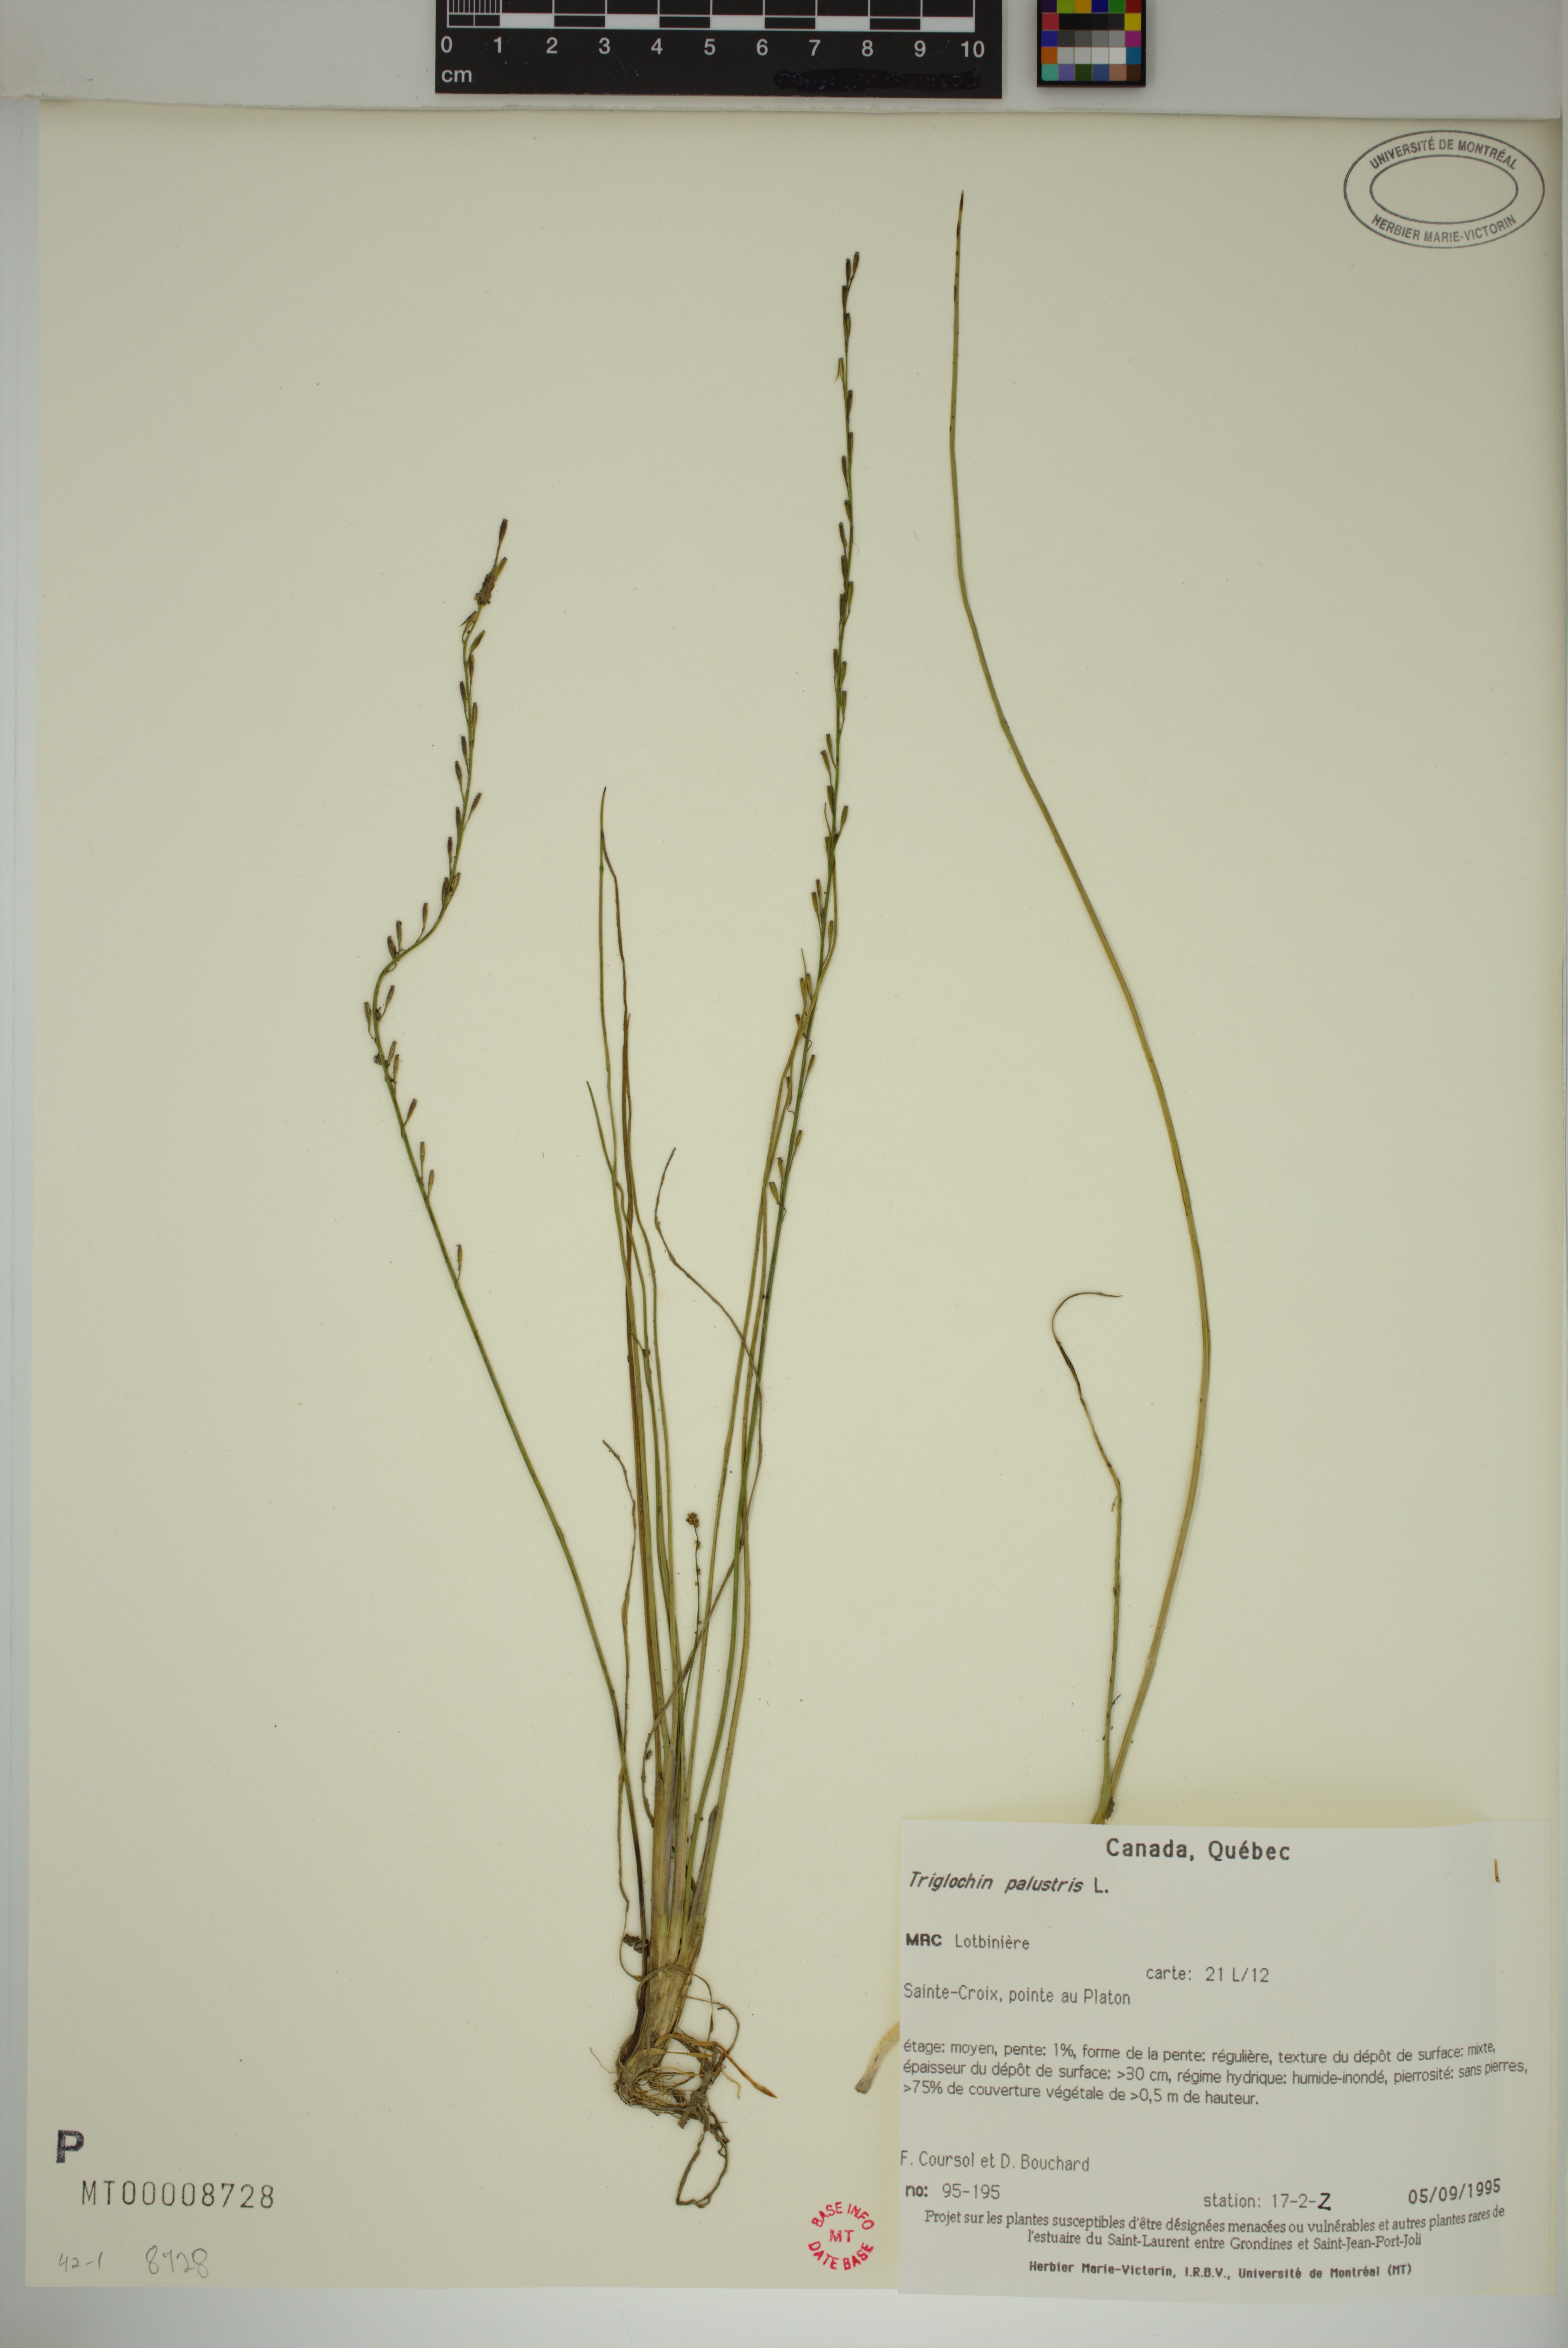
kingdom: Plantae
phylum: Tracheophyta
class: Liliopsida
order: Alismatales
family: Juncaginaceae
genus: Triglochin
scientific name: Triglochin palustris
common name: Marsh arrowgrass
